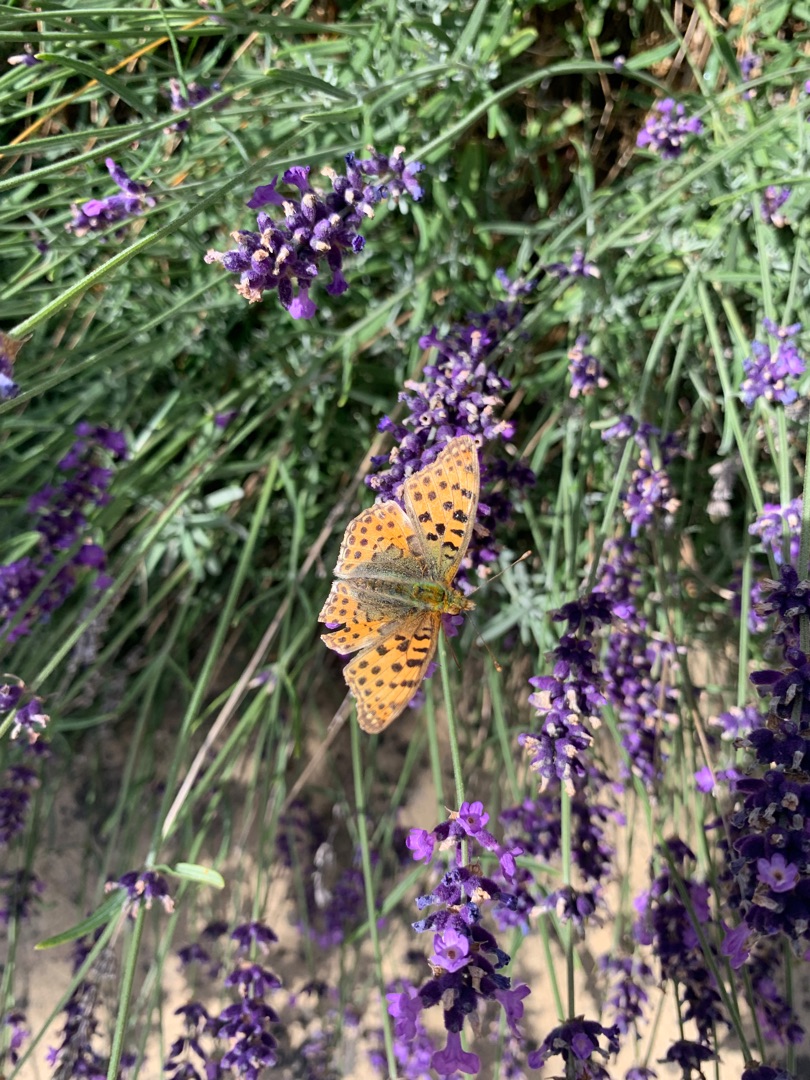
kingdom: Animalia
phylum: Arthropoda
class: Insecta
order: Lepidoptera
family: Nymphalidae
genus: Issoria
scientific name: Issoria lathonia
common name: Storplettet perlemorsommerfugl
